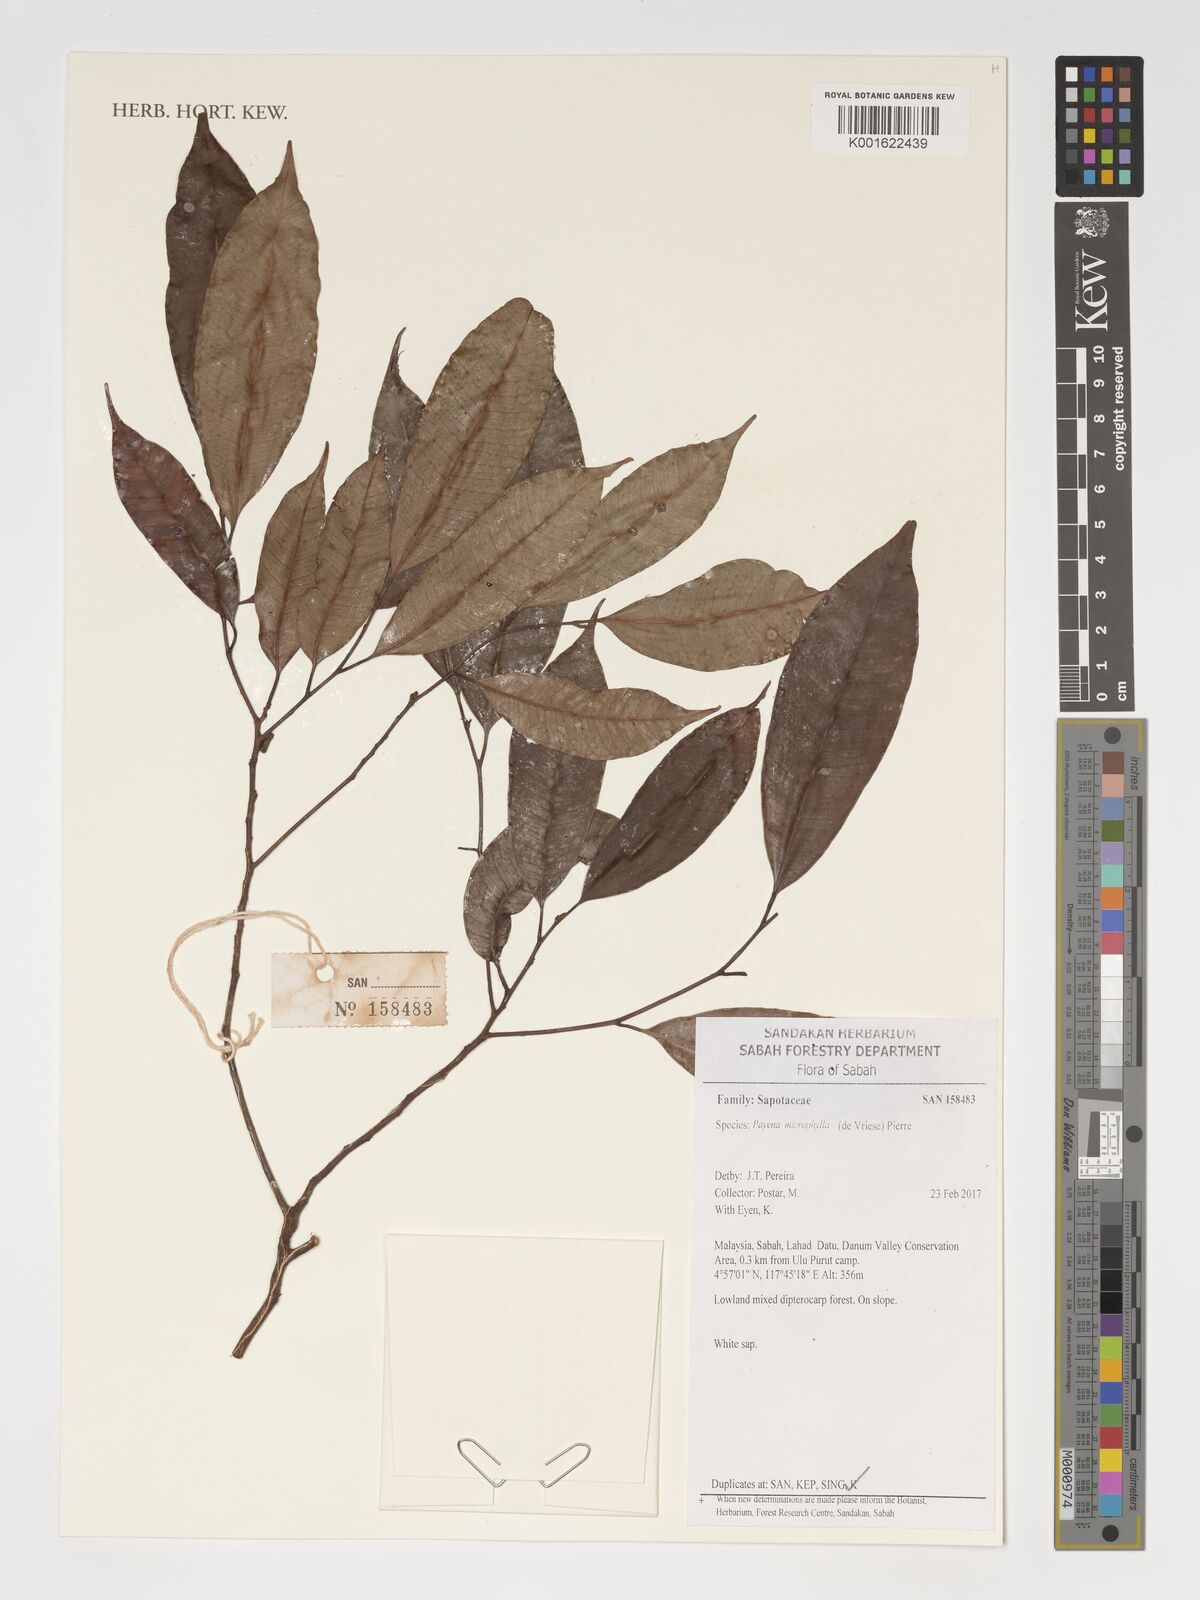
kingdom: Plantae
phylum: Tracheophyta
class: Magnoliopsida
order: Ericales
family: Sapotaceae
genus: Payena
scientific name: Payena microphylla
